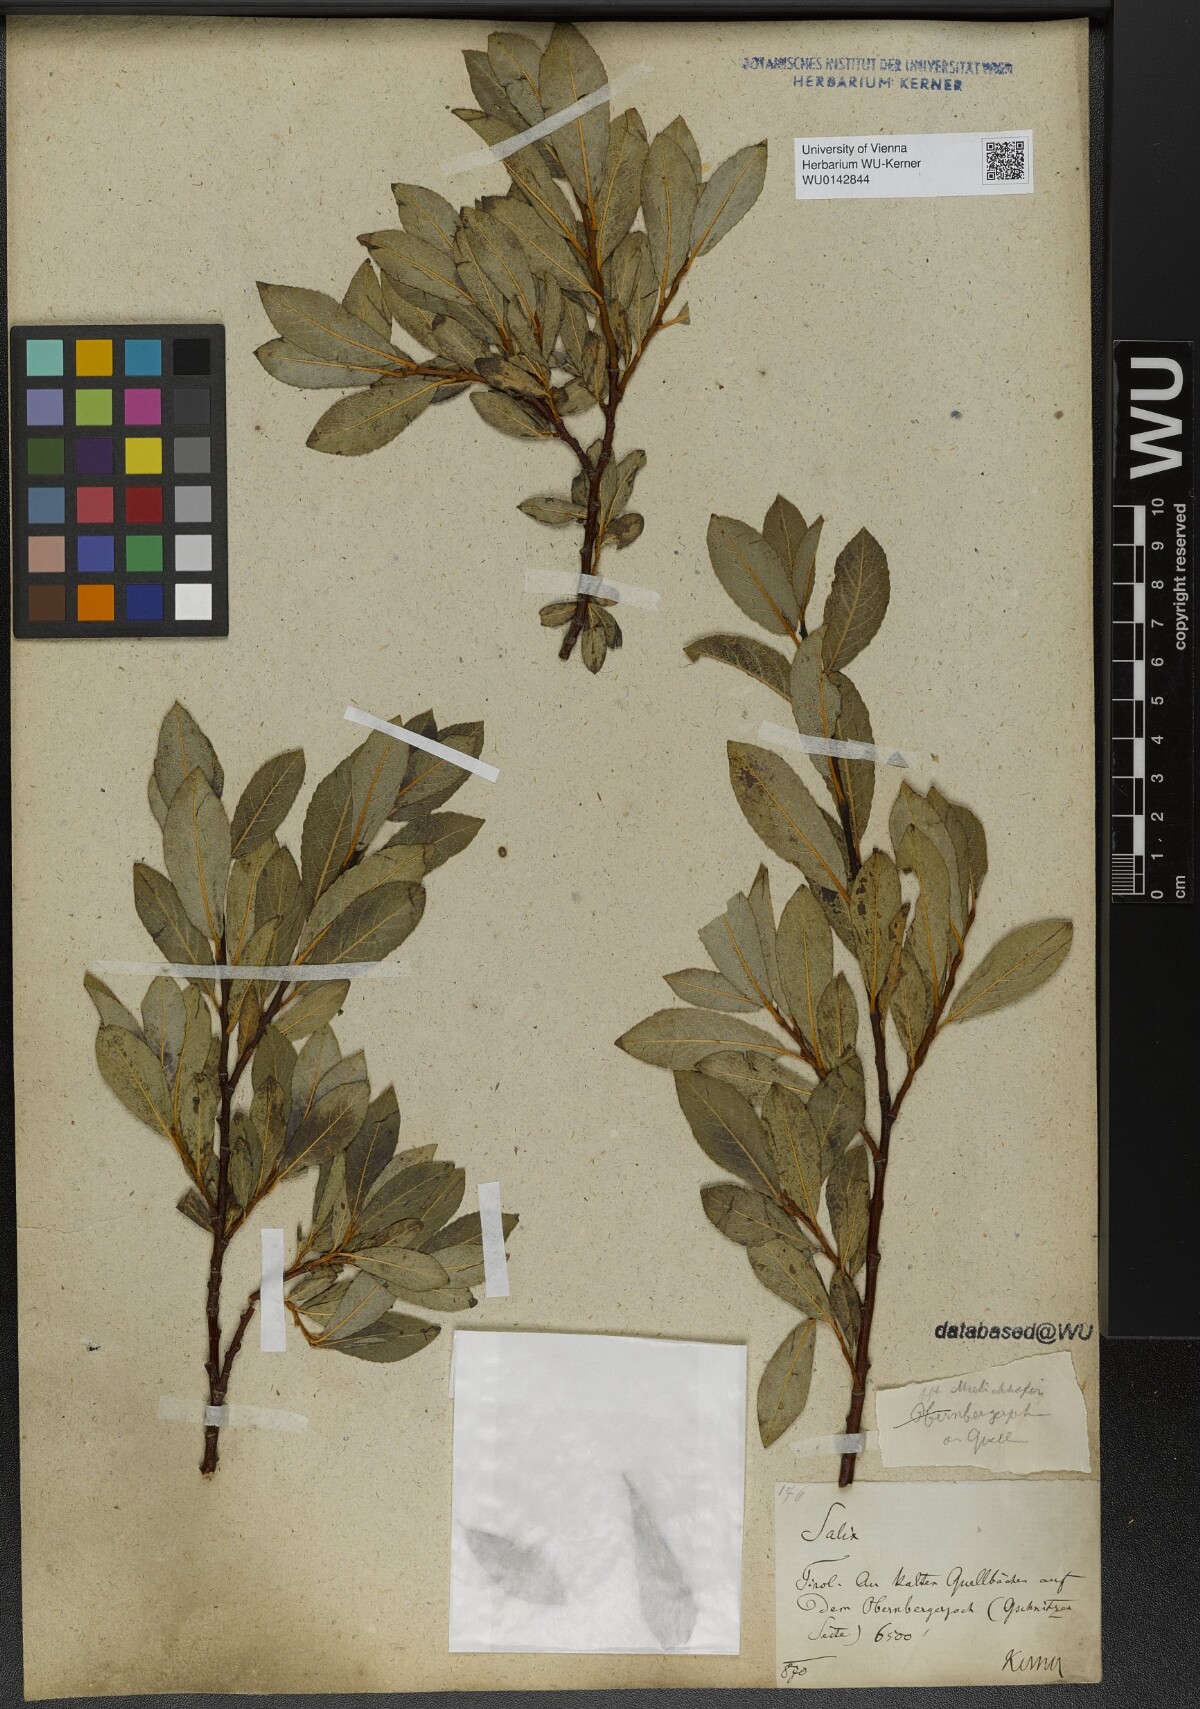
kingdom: Plantae
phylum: Tracheophyta
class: Magnoliopsida
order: Malpighiales
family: Salicaceae
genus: Salix
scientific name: Salix mielichhoferi
